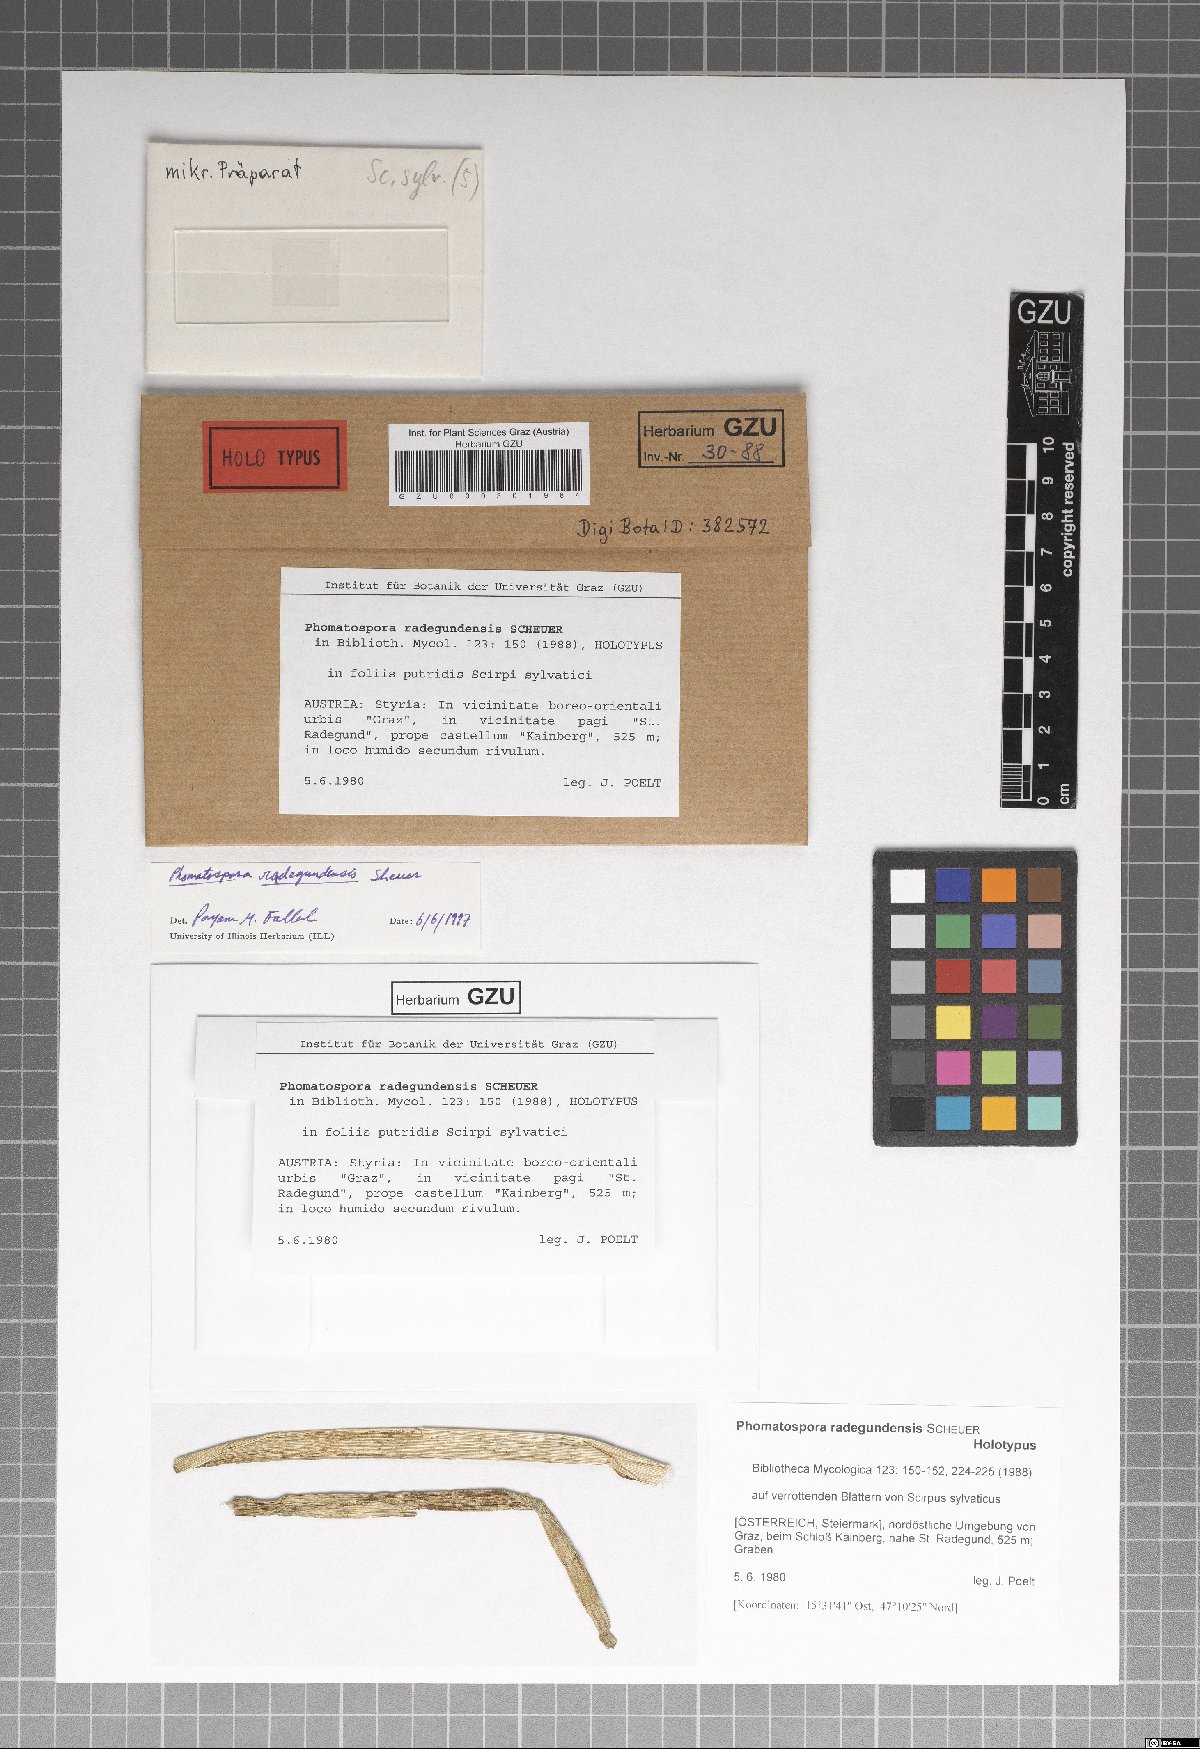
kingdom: Fungi
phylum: Ascomycota
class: Sordariomycetes
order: Phomatosporales
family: Phomatosporaceae
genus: Phomatospora
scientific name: Phomatospora radegundensis
